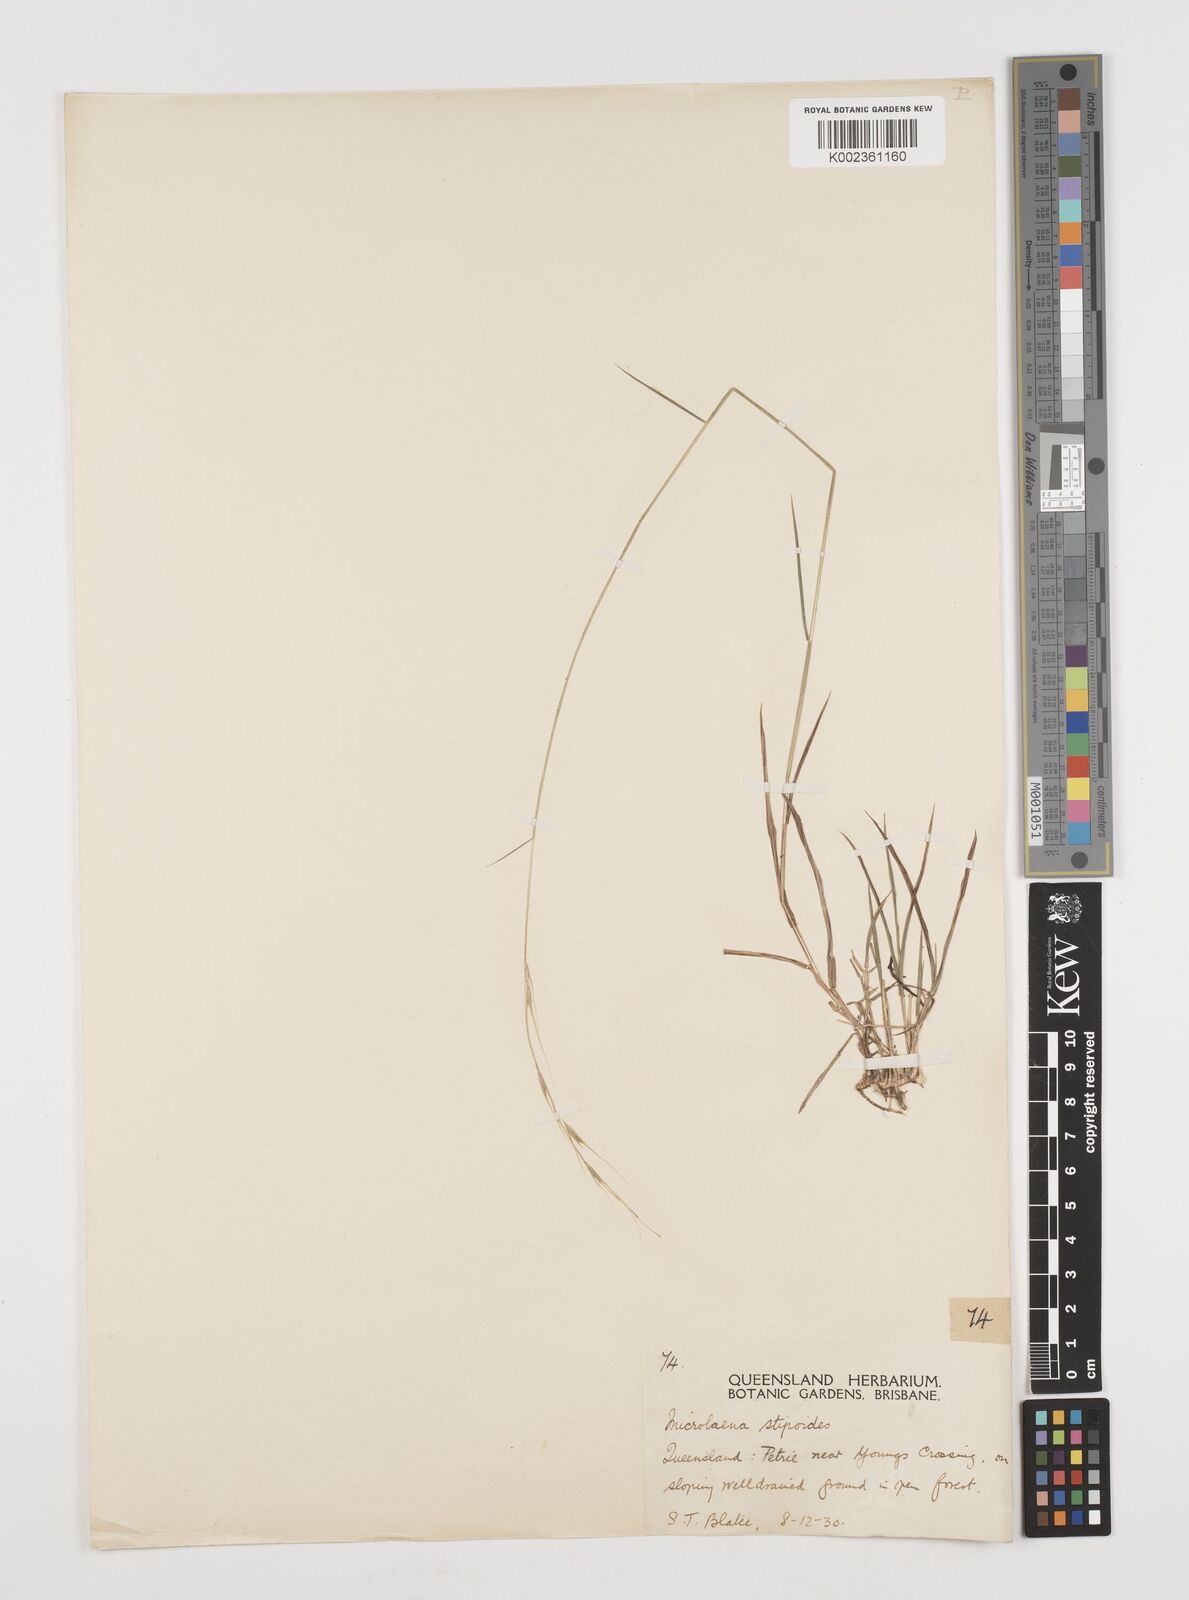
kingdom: Plantae
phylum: Tracheophyta
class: Liliopsida
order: Poales
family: Poaceae
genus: Microlaena
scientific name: Microlaena stipoides
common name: Meadow ricegrass
